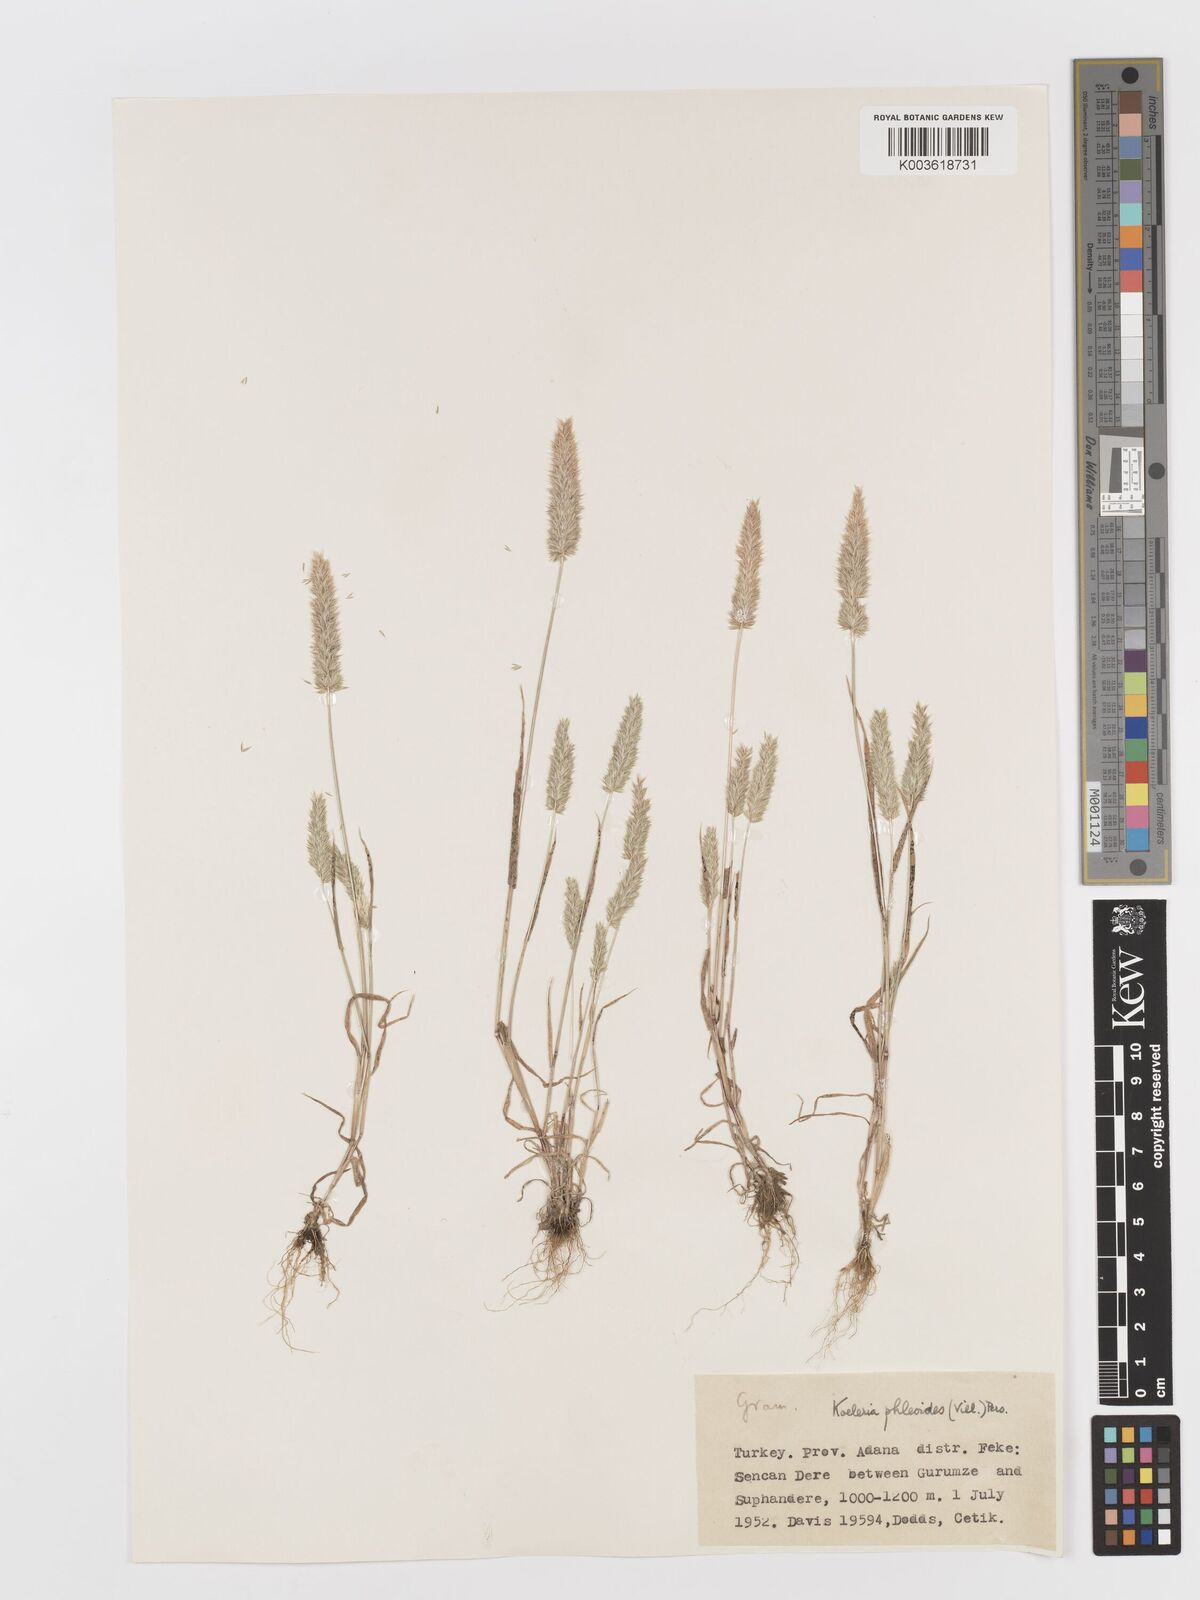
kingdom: Plantae
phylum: Tracheophyta
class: Liliopsida
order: Poales
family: Poaceae
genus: Rostraria
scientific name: Rostraria cristata
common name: Mediterranean hair-grass
